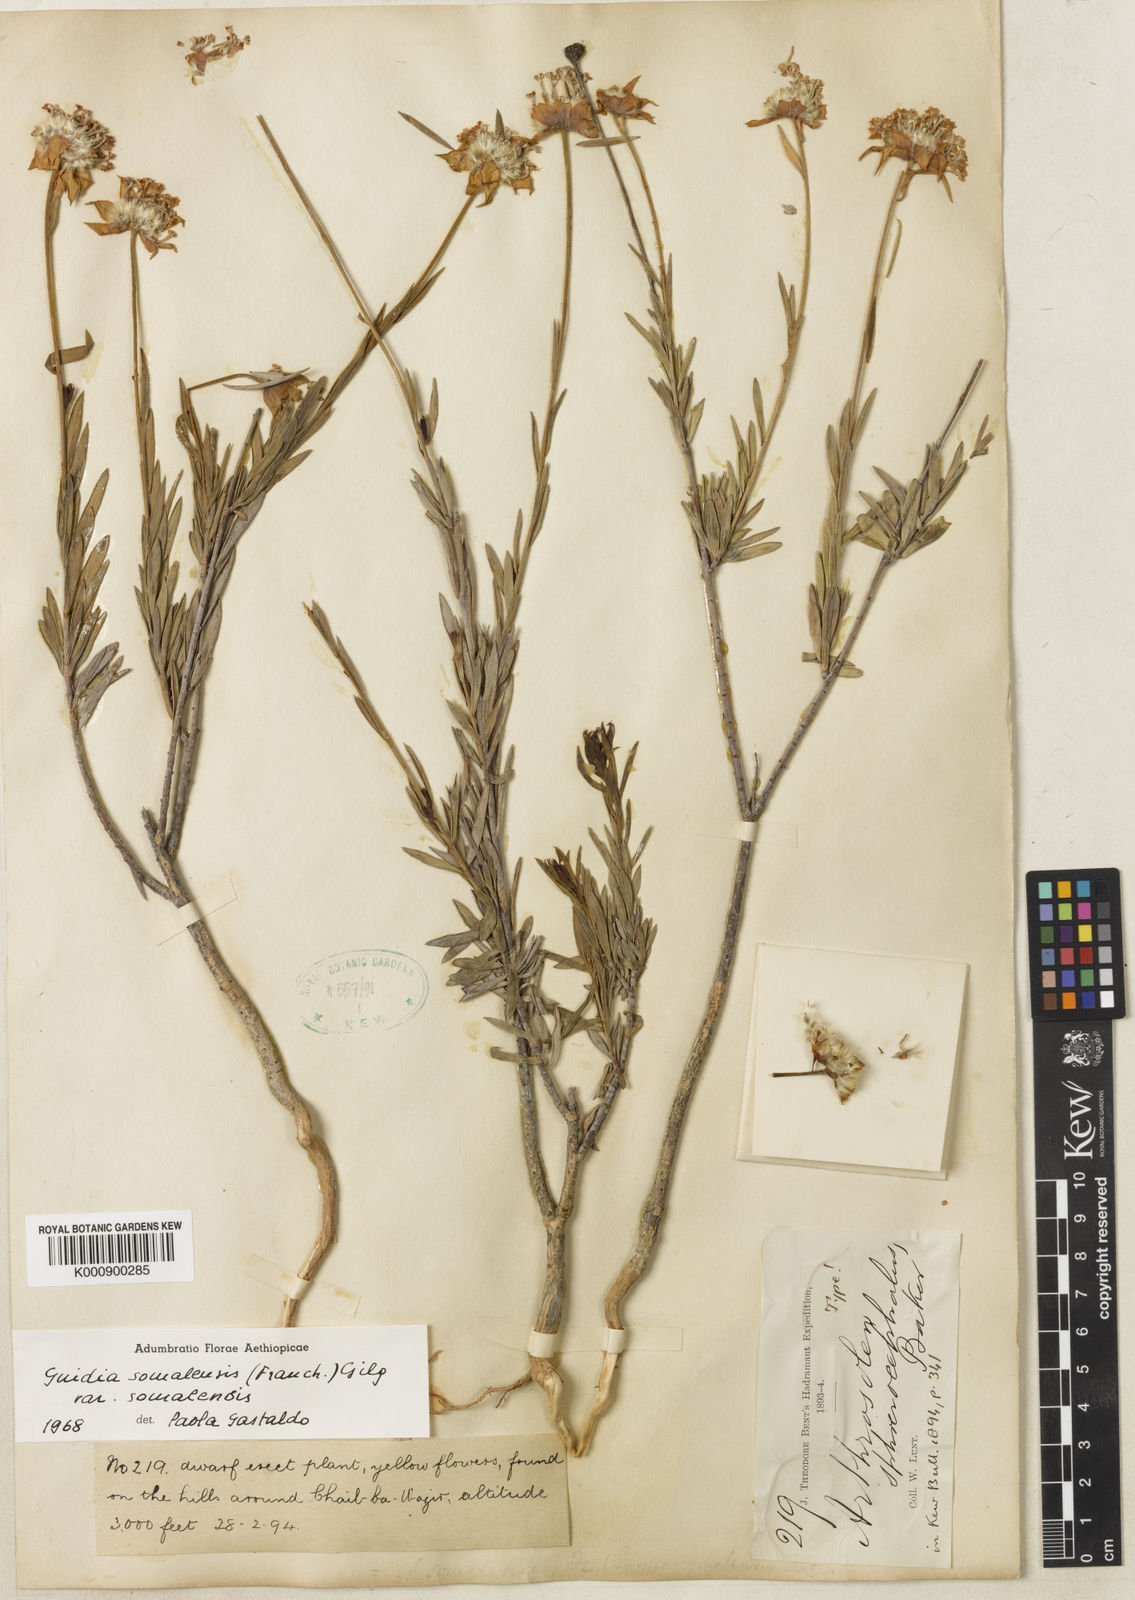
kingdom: Plantae
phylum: Tracheophyta
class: Magnoliopsida
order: Malvales
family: Thymelaeaceae
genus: Gnidia
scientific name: Gnidia somalensis
